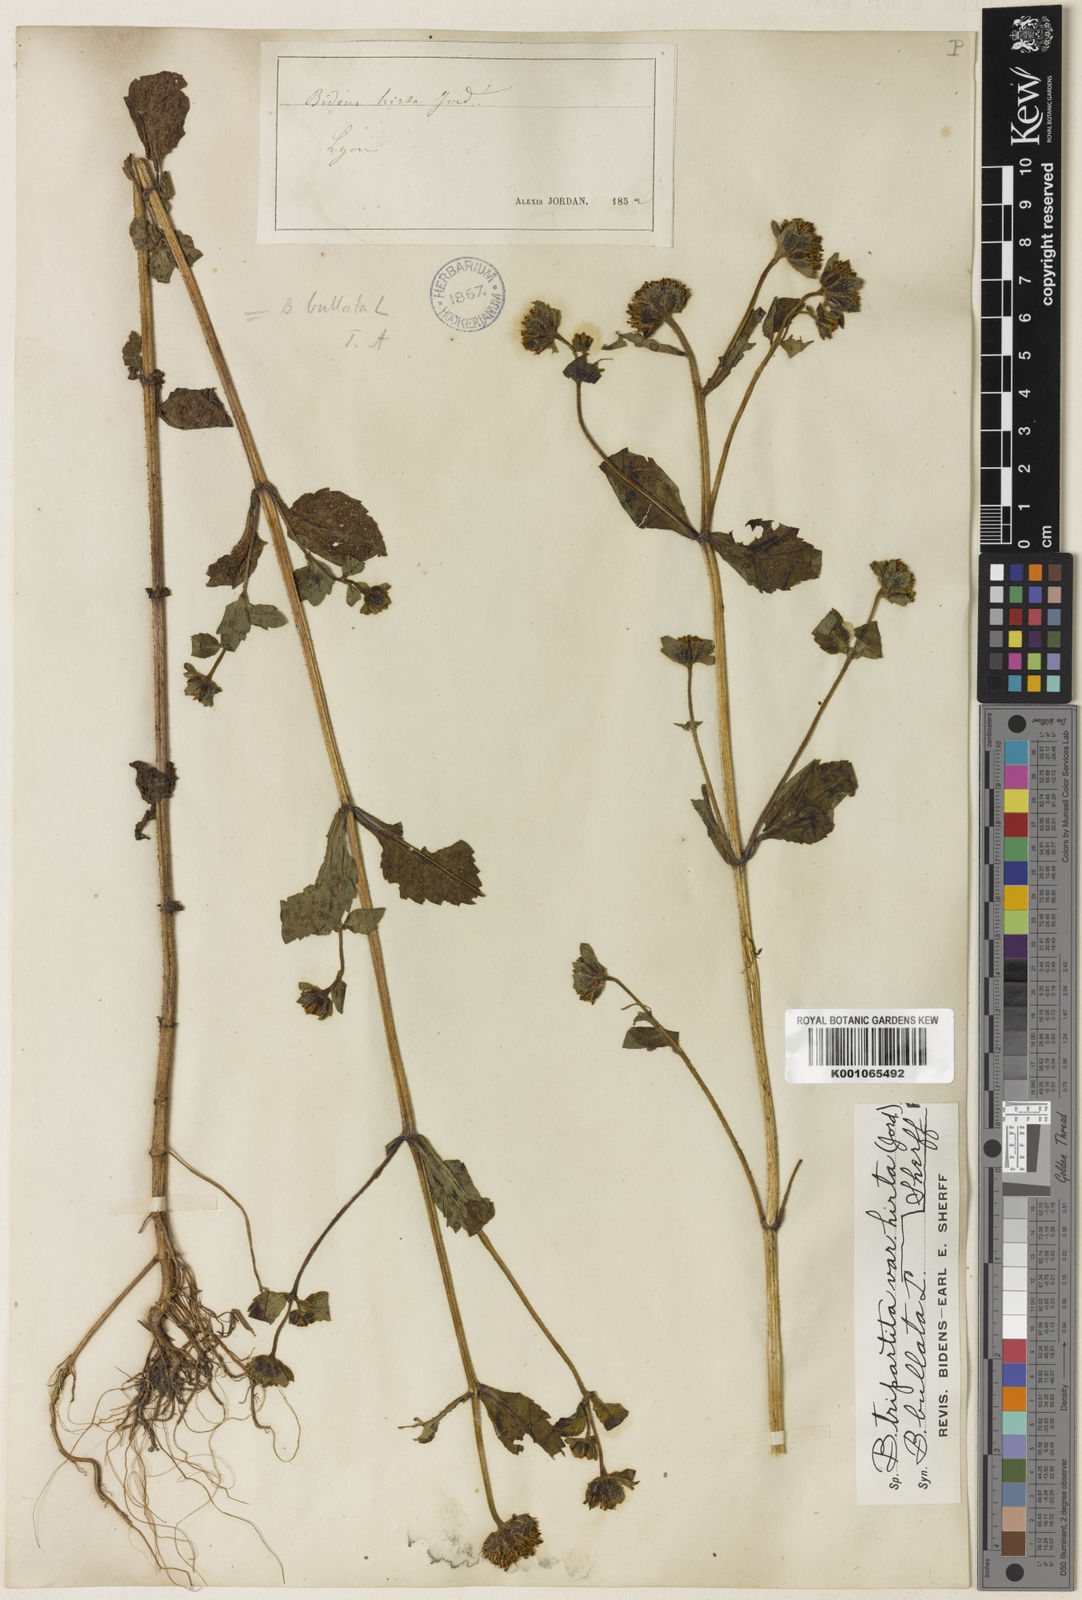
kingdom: Plantae
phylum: Tracheophyta
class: Magnoliopsida
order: Asterales
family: Asteraceae
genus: Bidens
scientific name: Bidens
